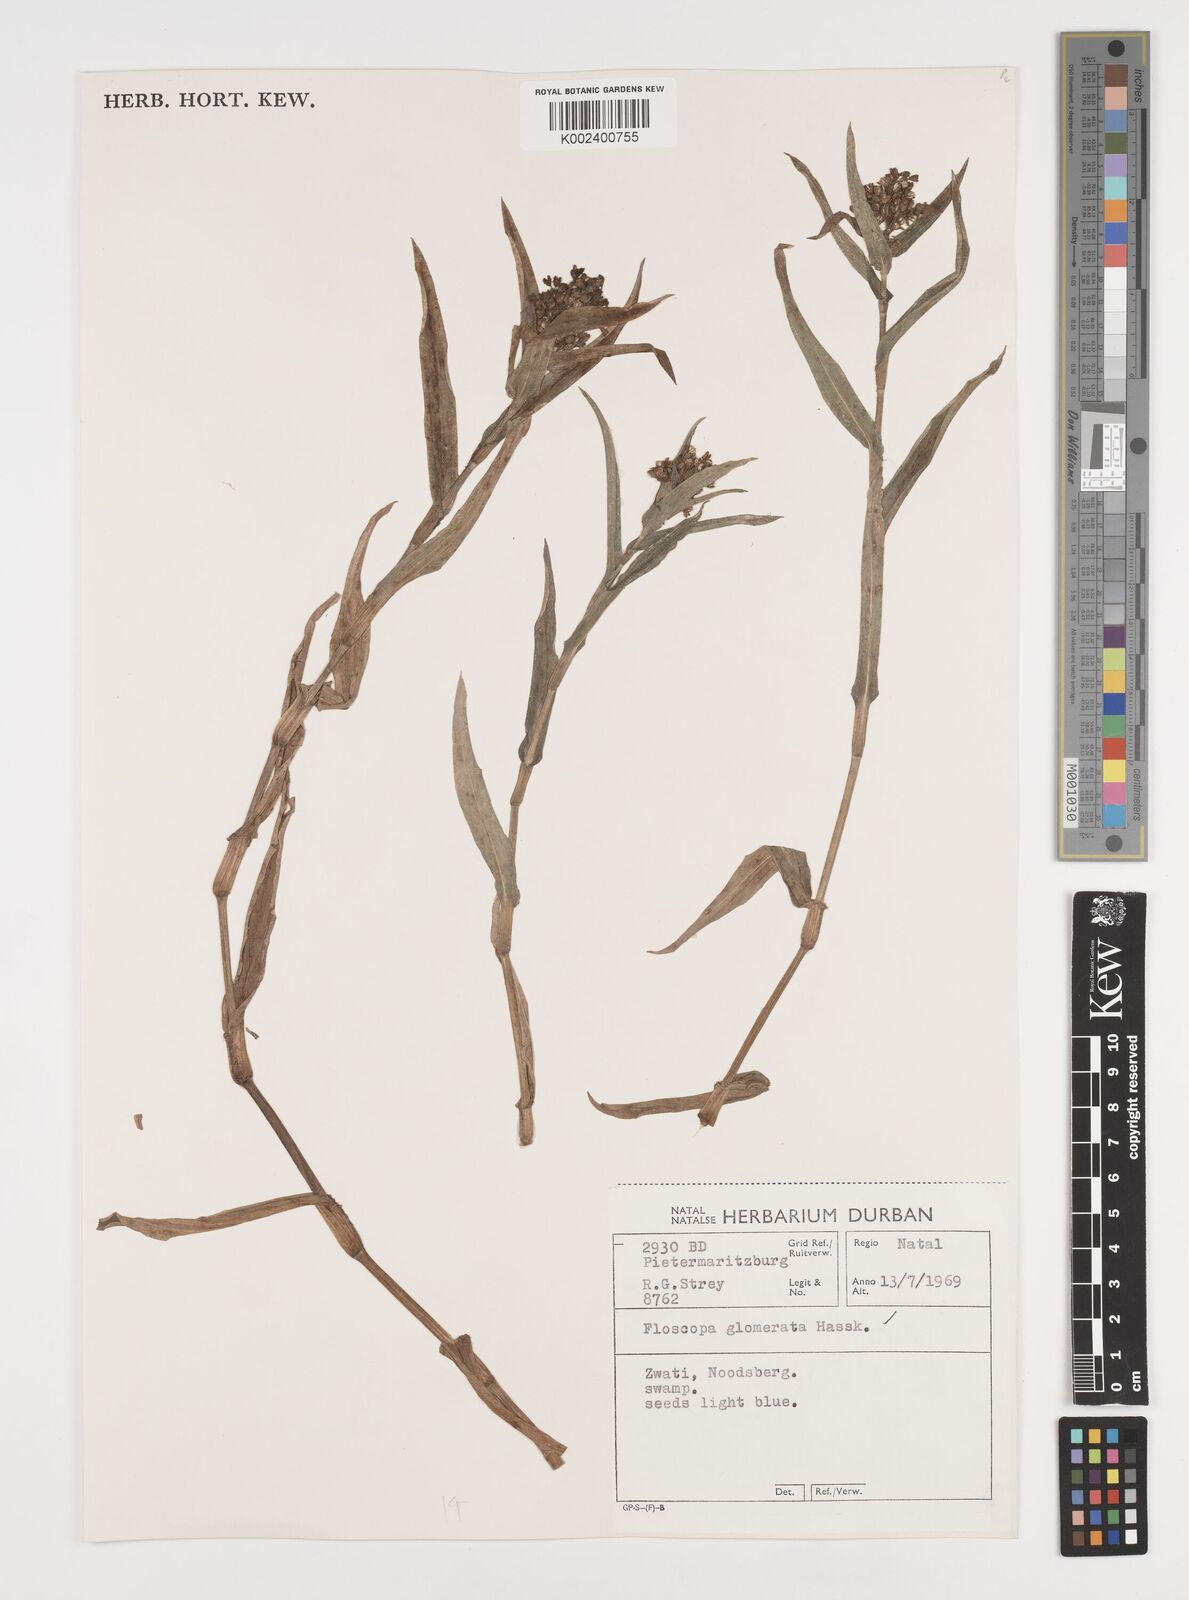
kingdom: Plantae
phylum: Tracheophyta
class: Liliopsida
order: Commelinales
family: Commelinaceae
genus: Floscopa
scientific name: Floscopa glomerata
